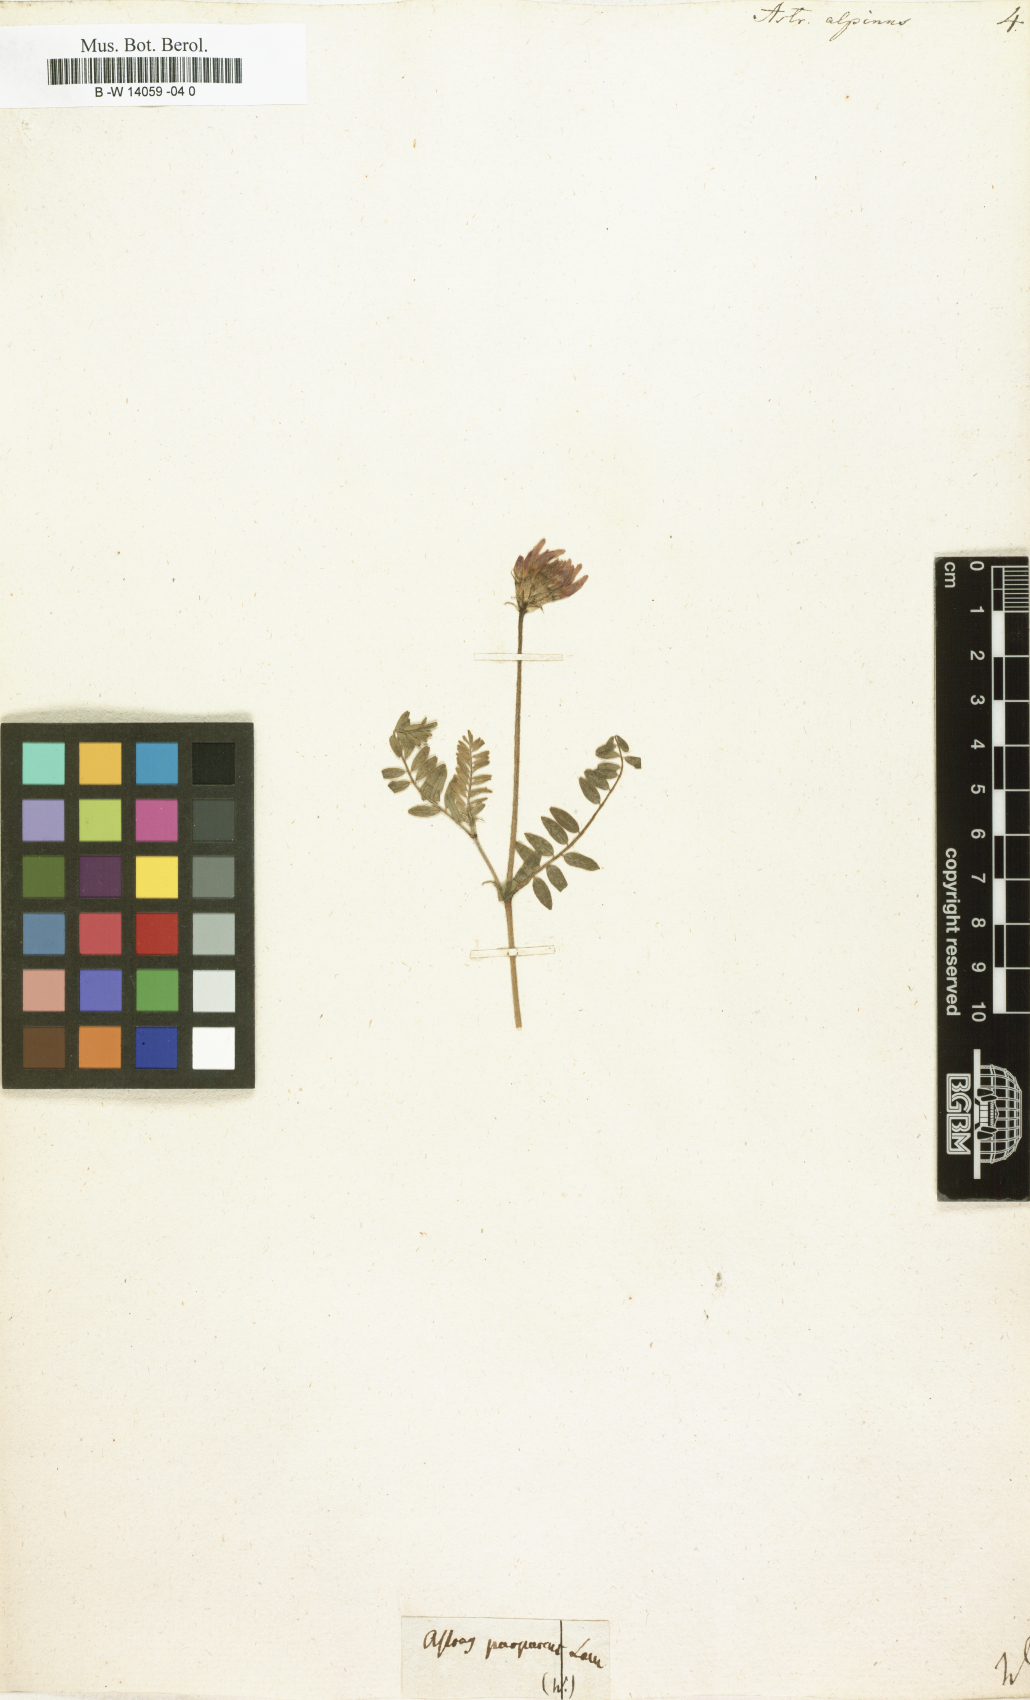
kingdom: Plantae
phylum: Tracheophyta
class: Magnoliopsida
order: Fabales
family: Fabaceae
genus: Astragalus
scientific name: Astragalus alpinus
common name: Alpine milk-vetch
